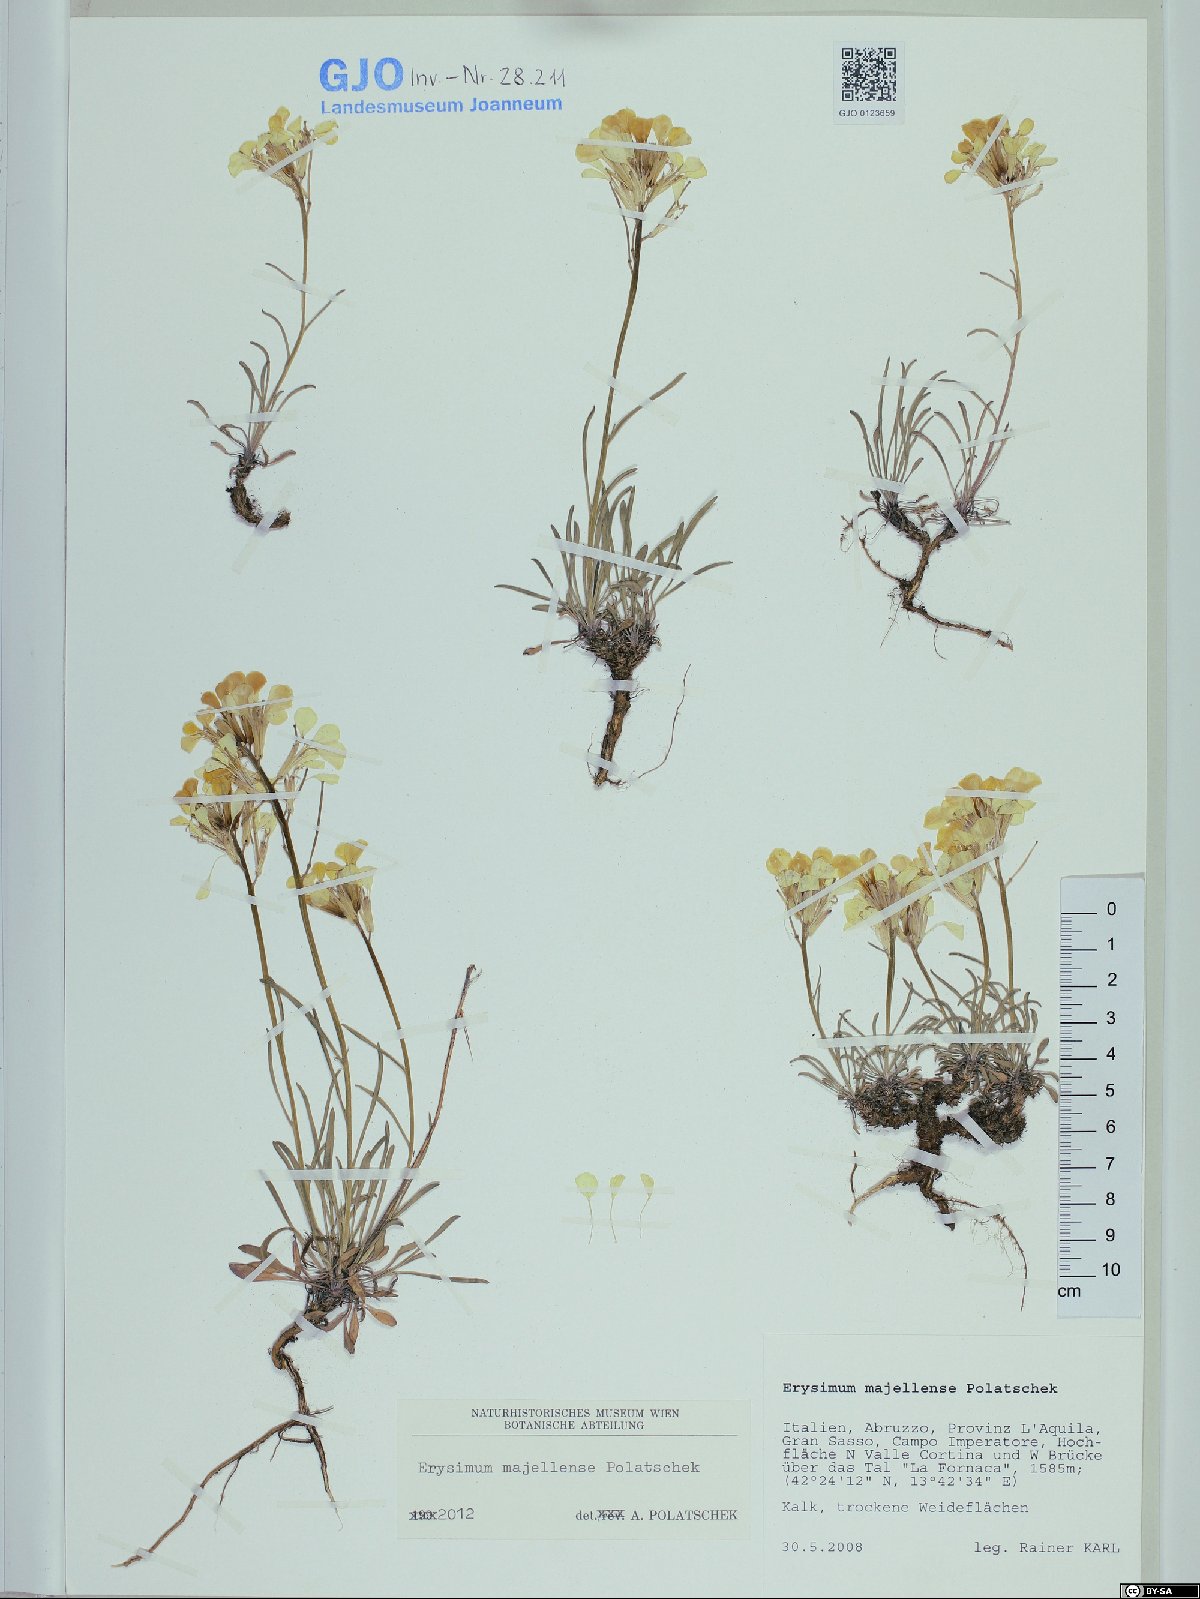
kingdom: Plantae
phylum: Tracheophyta
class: Magnoliopsida
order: Brassicales
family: Brassicaceae
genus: Erysimum
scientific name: Erysimum majellense
